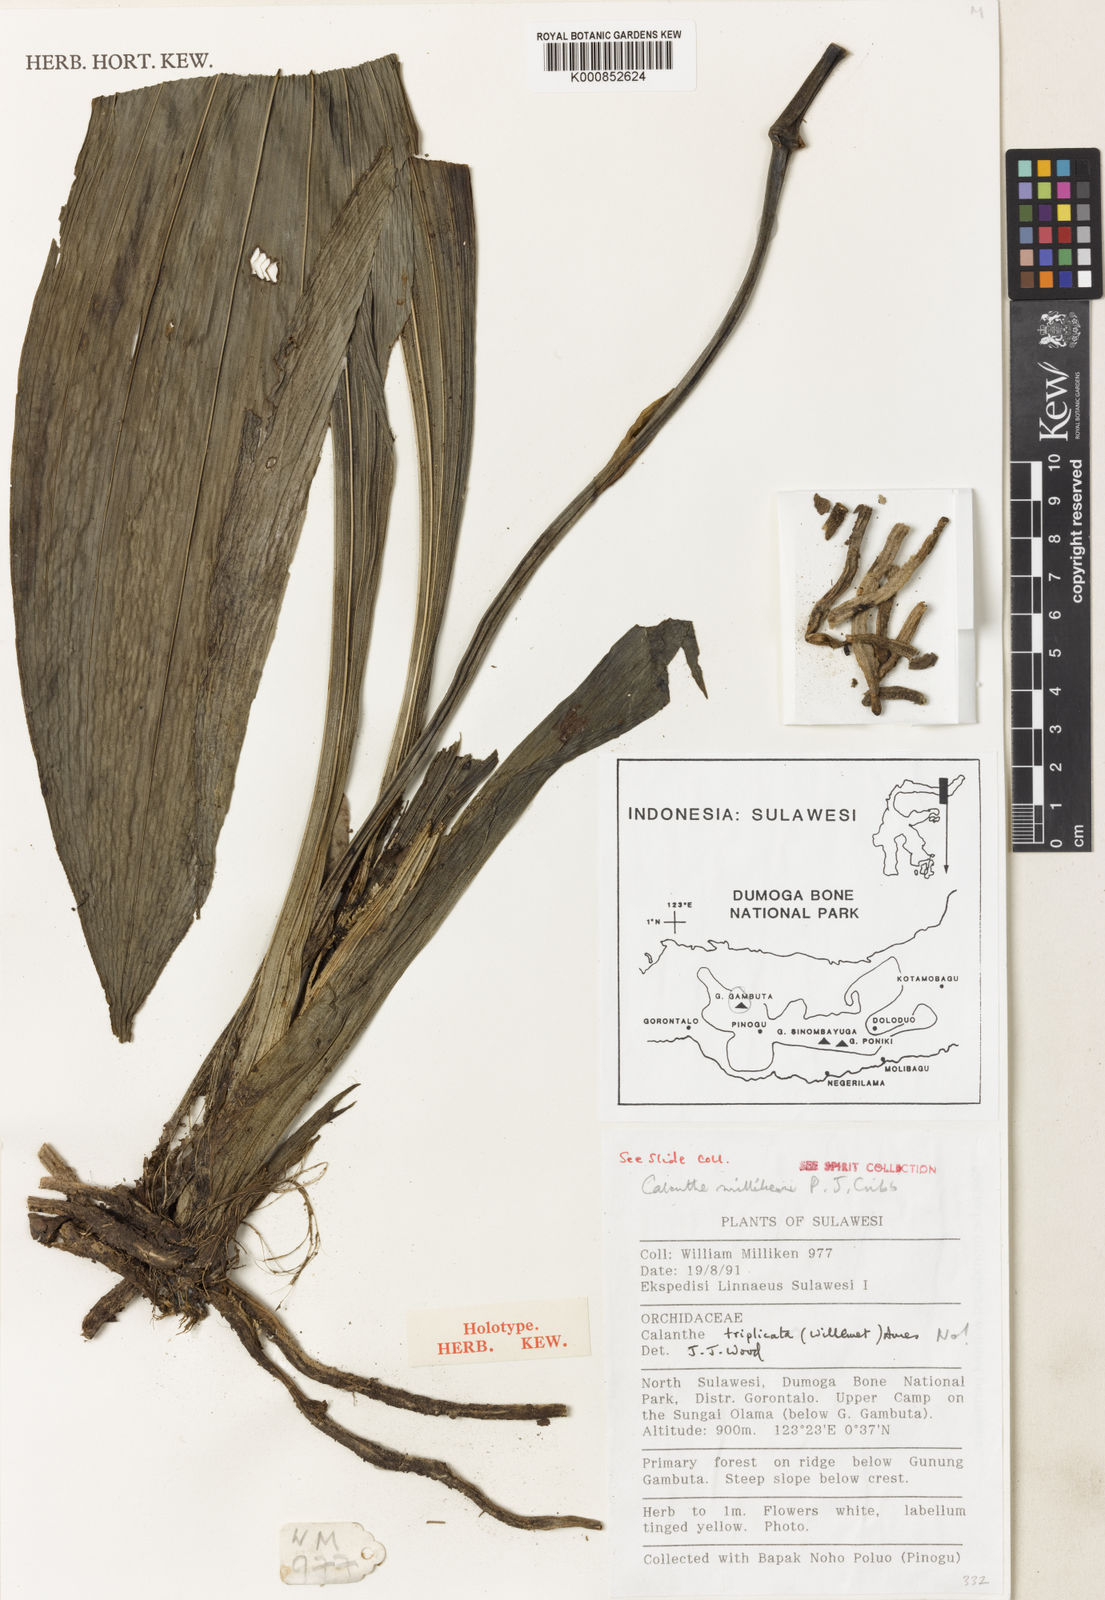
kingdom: Plantae
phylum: Tracheophyta
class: Liliopsida
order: Asparagales
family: Orchidaceae
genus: Calanthe
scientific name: Calanthe millikenii
